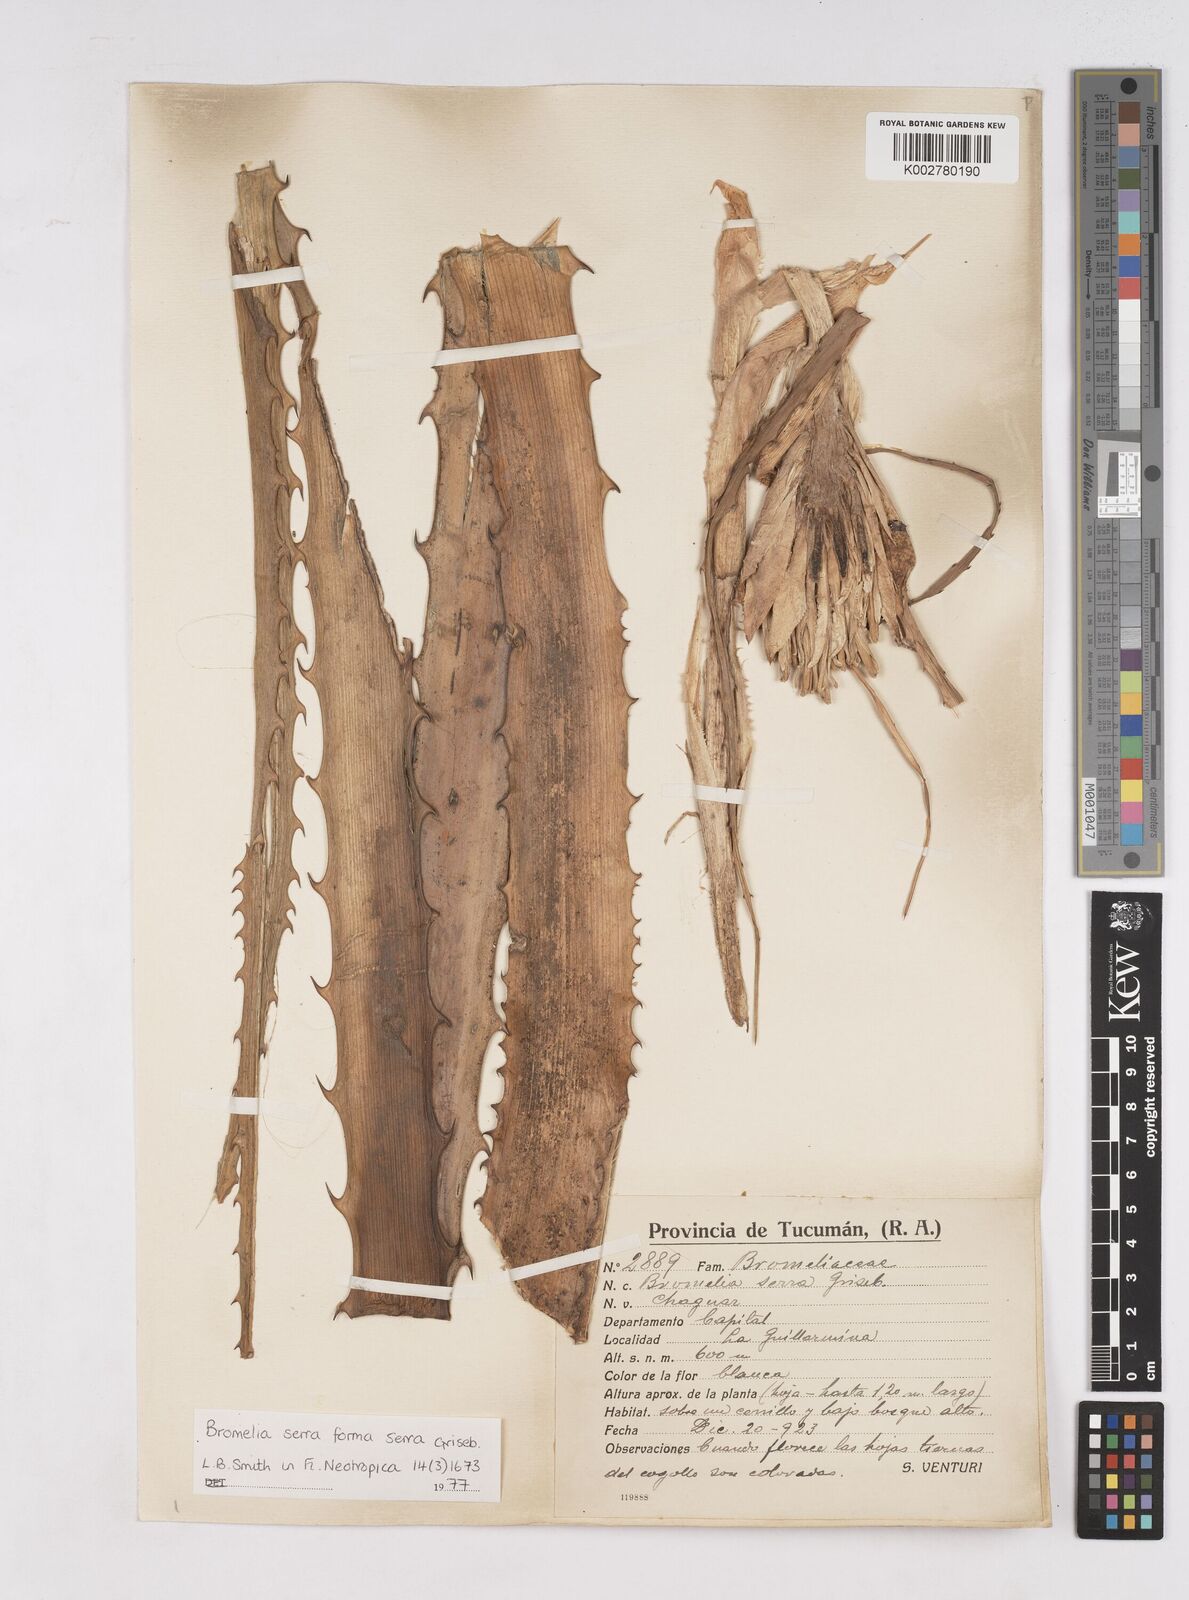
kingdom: Plantae
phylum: Tracheophyta
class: Liliopsida
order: Poales
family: Bromeliaceae
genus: Bromelia
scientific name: Bromelia serra
